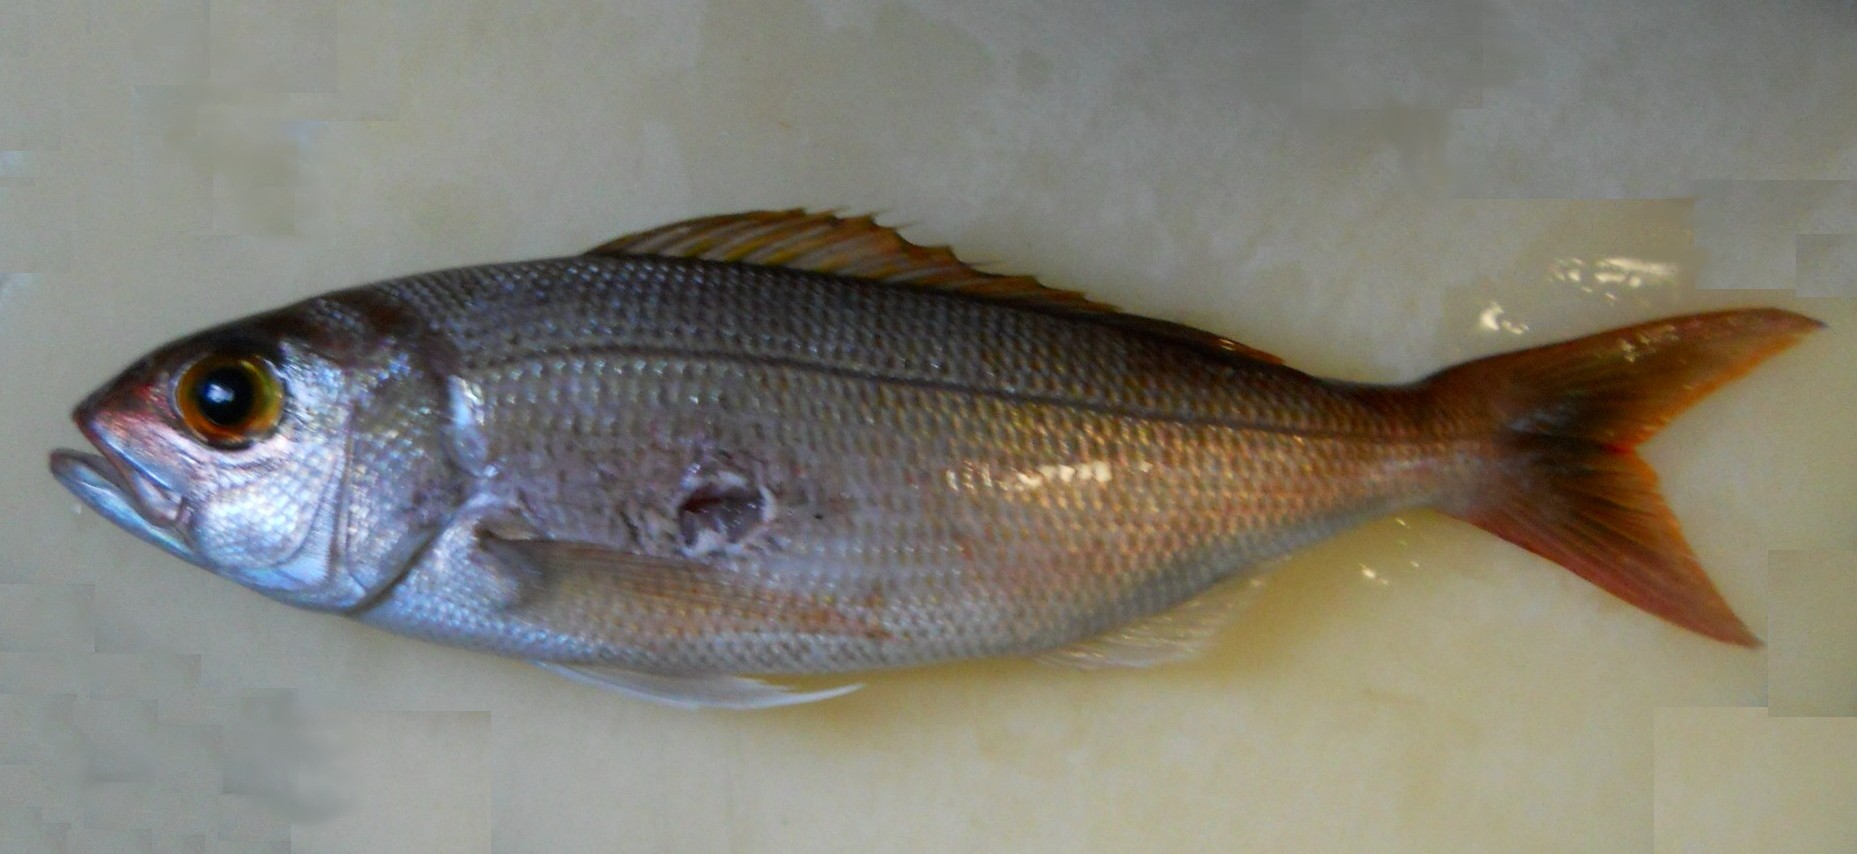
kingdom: Animalia
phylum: Chordata
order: Perciformes
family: Lutjanidae
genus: Pristipomoides
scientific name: Pristipomoides filamentosus
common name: Bluespot jobfish
